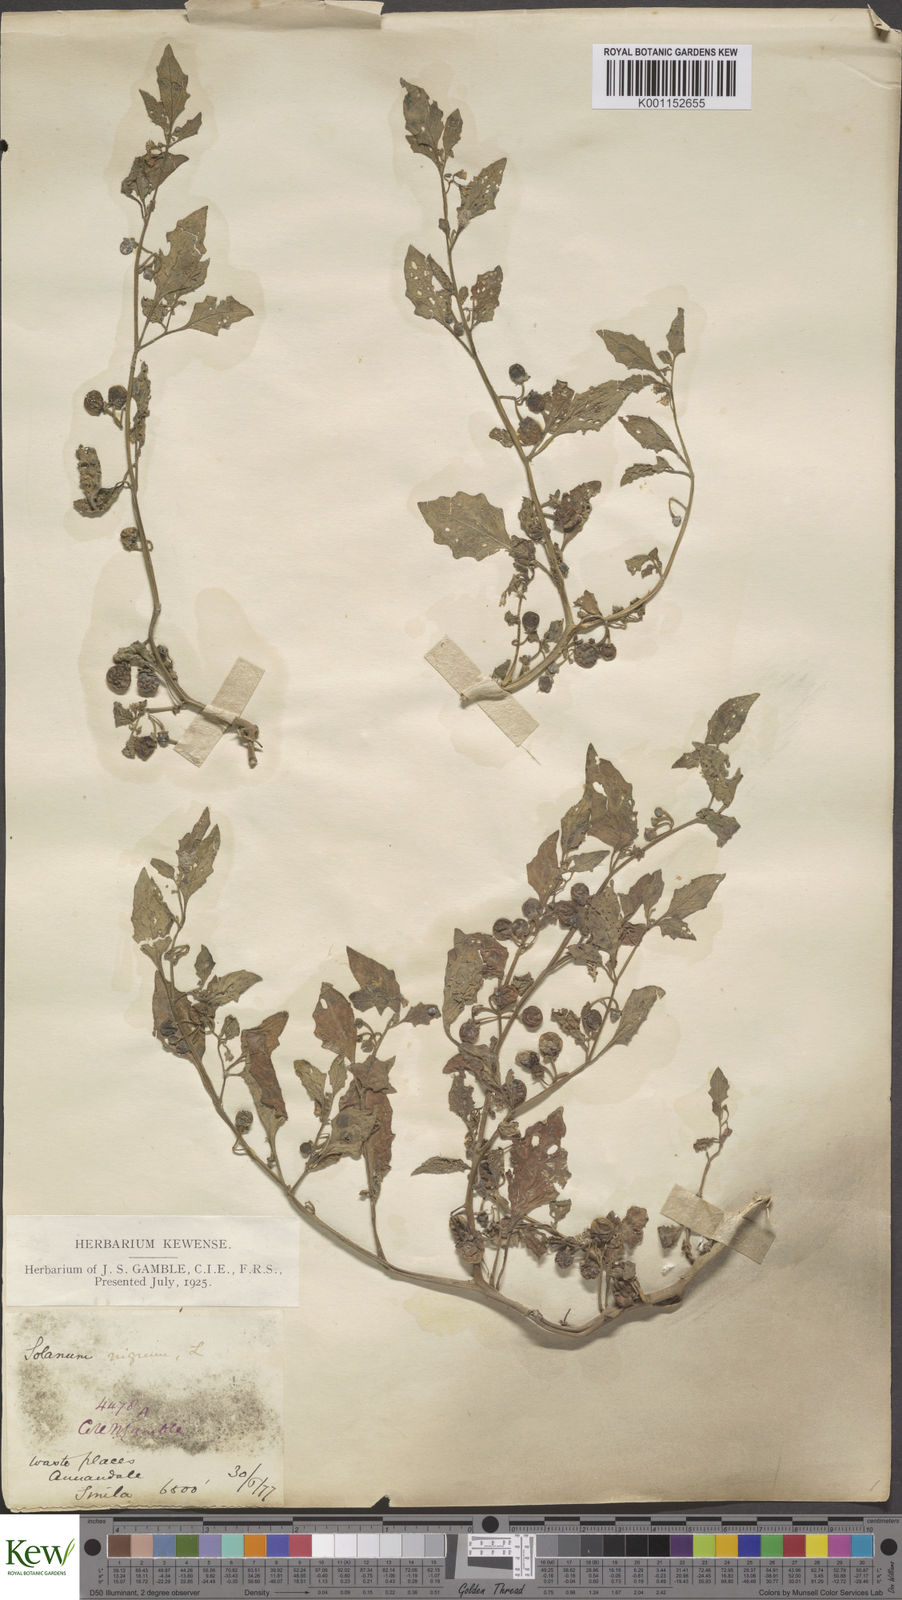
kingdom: Plantae
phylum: Tracheophyta
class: Magnoliopsida
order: Solanales
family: Solanaceae
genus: Solanum
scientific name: Solanum nigrum
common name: Black nightshade
